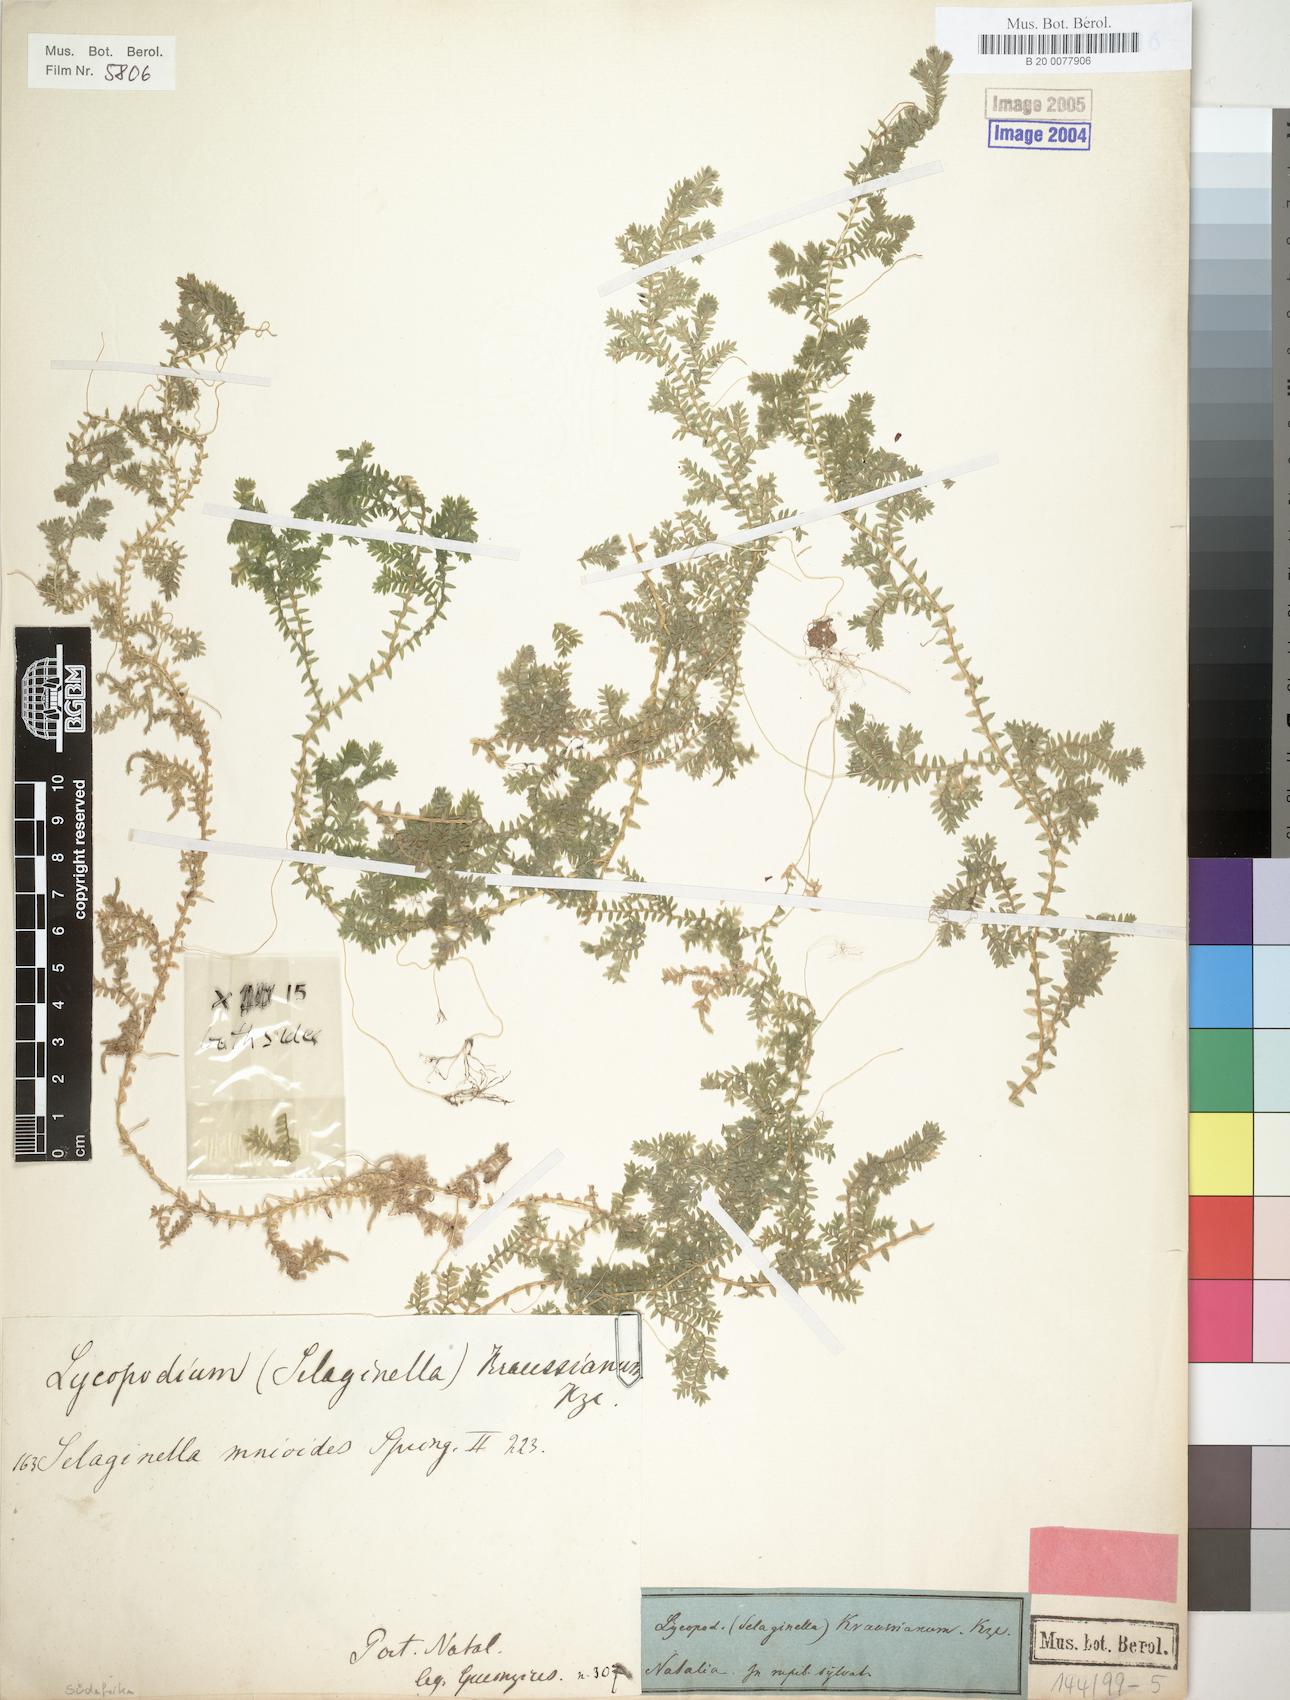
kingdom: Plantae
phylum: Tracheophyta
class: Lycopodiopsida
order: Selaginellales
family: Selaginellaceae
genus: Selaginella
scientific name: Selaginella kraussiana
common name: Krauss' spikemoss
